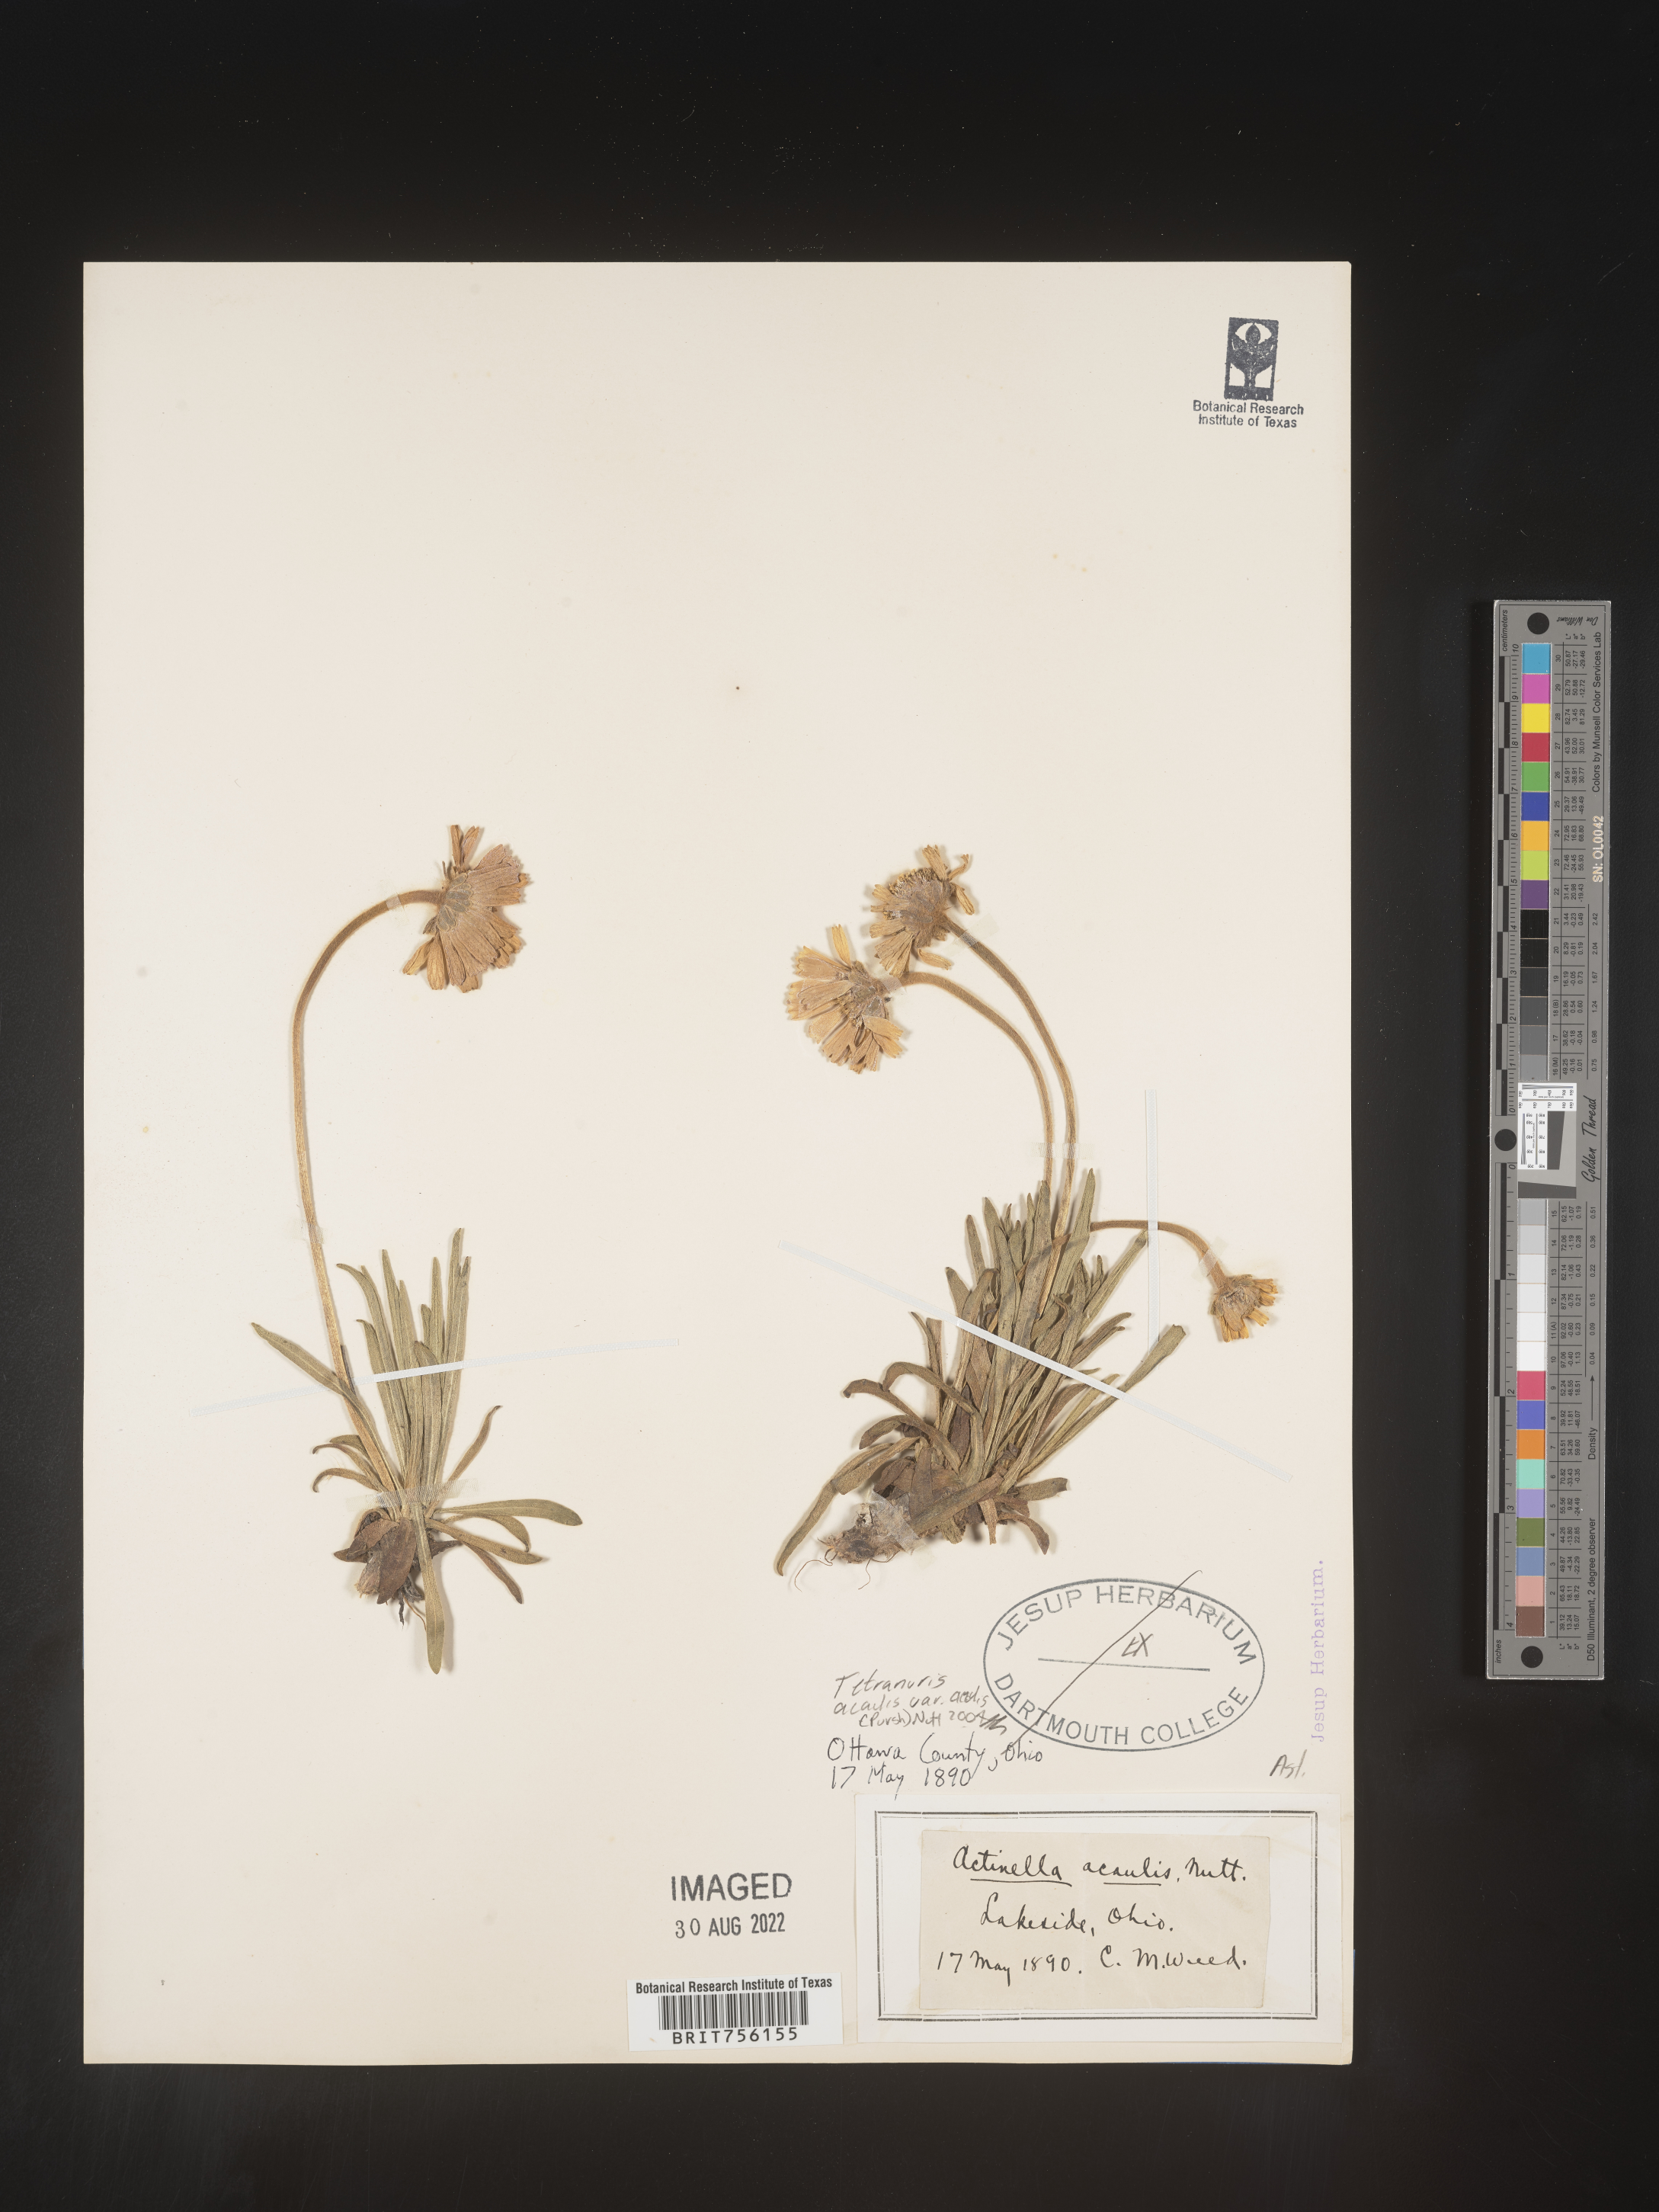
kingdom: Plantae
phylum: Tracheophyta
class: Magnoliopsida
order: Asterales
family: Asteraceae
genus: Tetraneuris
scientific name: Tetraneuris acaulis
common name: Butte marigold
